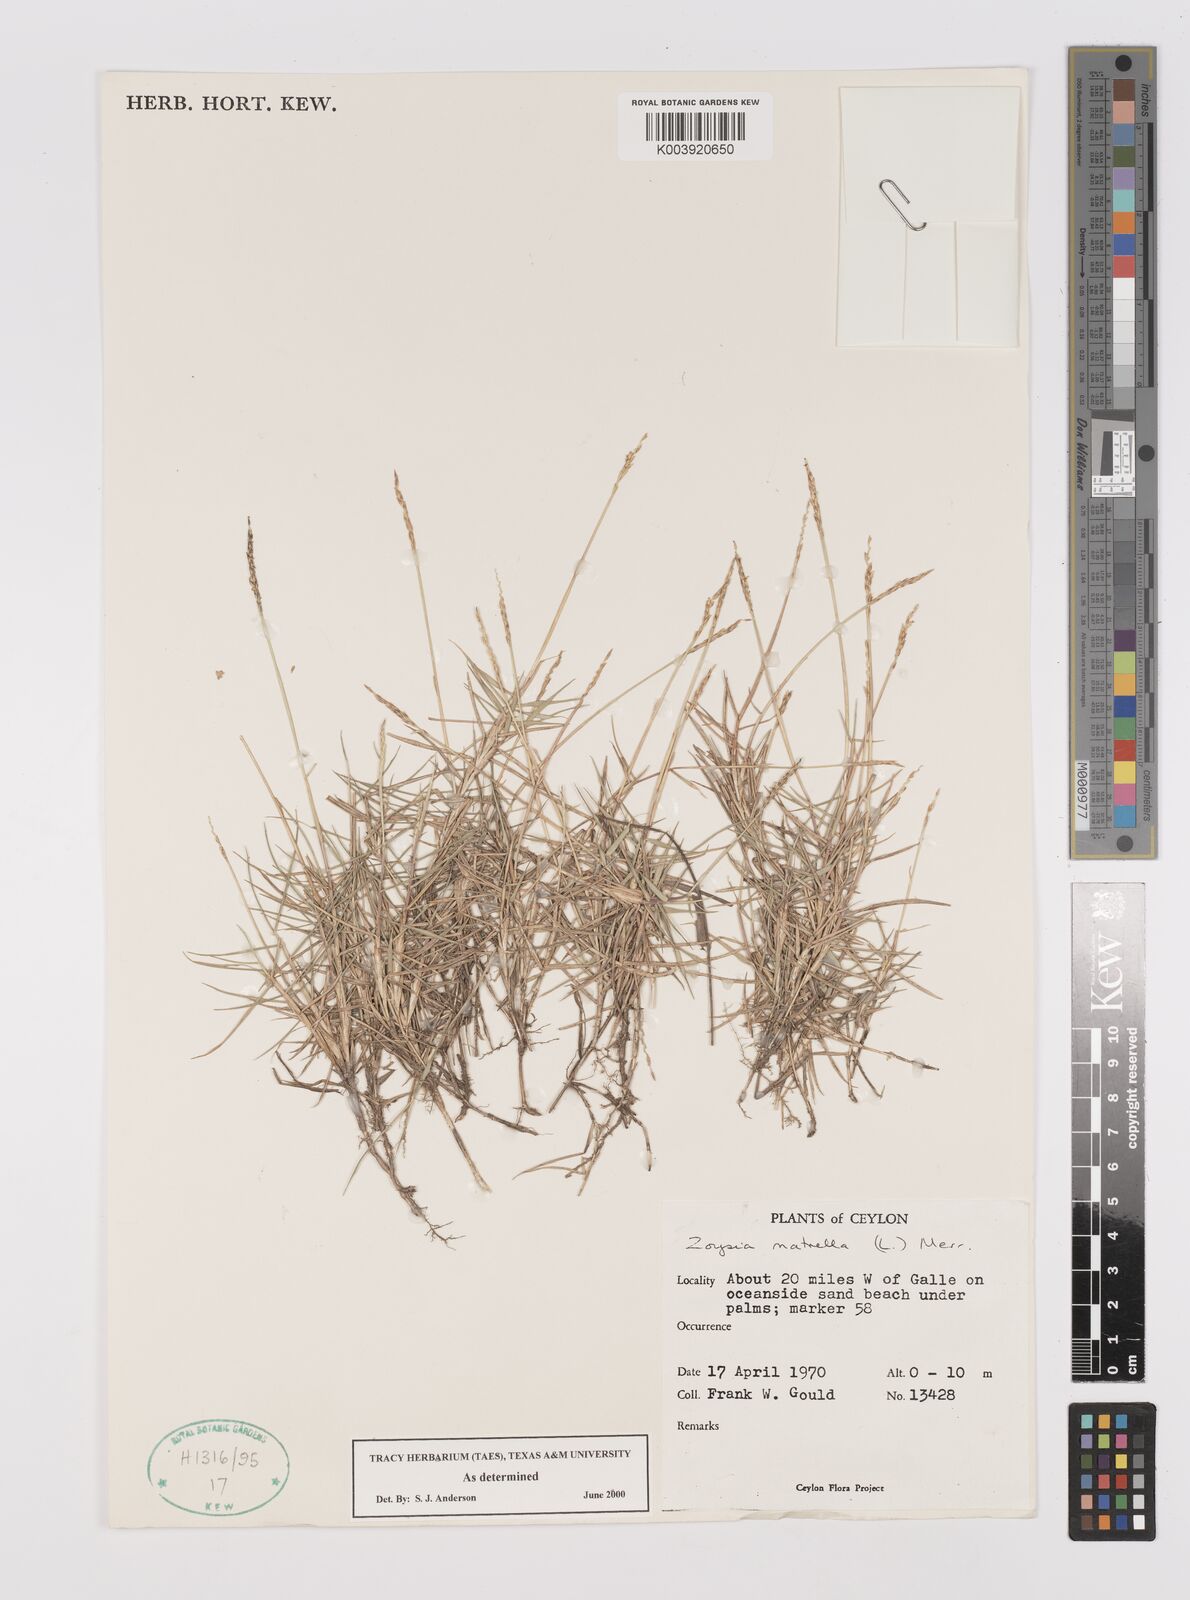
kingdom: Plantae
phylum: Tracheophyta
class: Liliopsida
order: Poales
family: Poaceae
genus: Zoysia
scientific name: Zoysia matrella
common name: Manila grass
